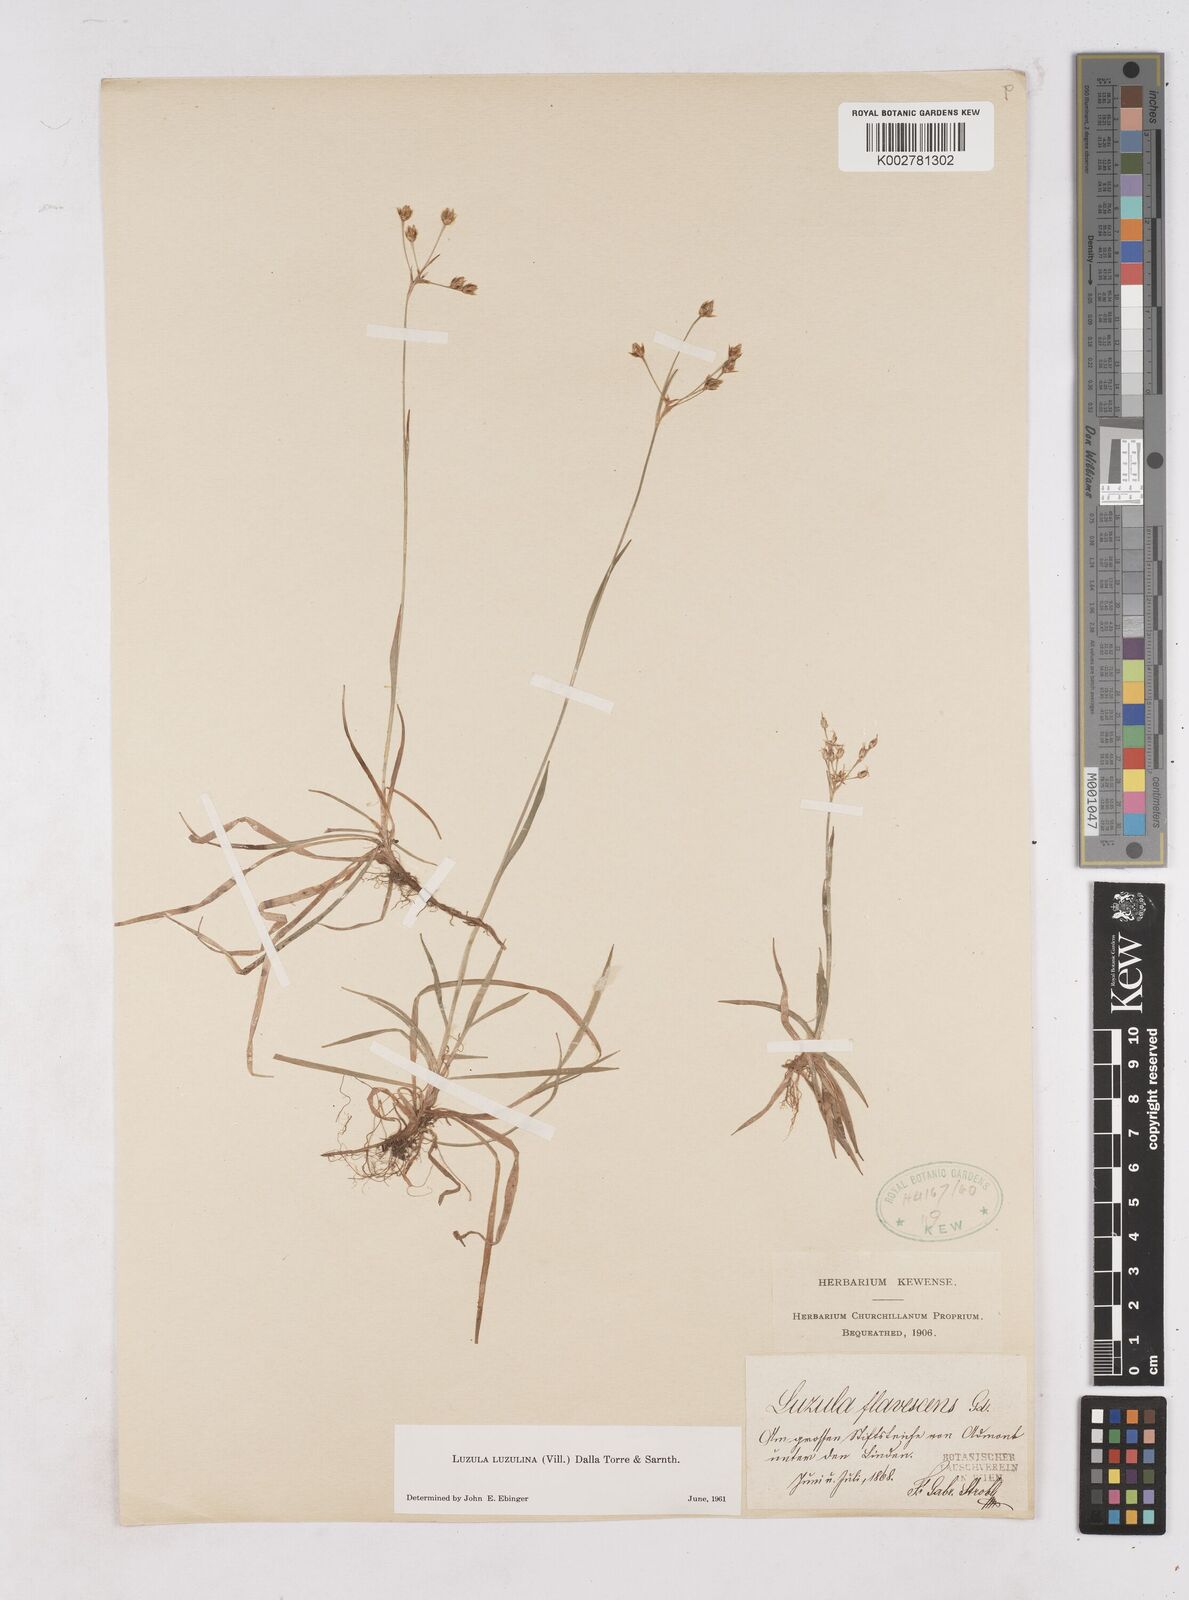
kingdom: Plantae
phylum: Tracheophyta
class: Liliopsida
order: Poales
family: Juncaceae
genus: Luzula
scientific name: Luzula luzulina
